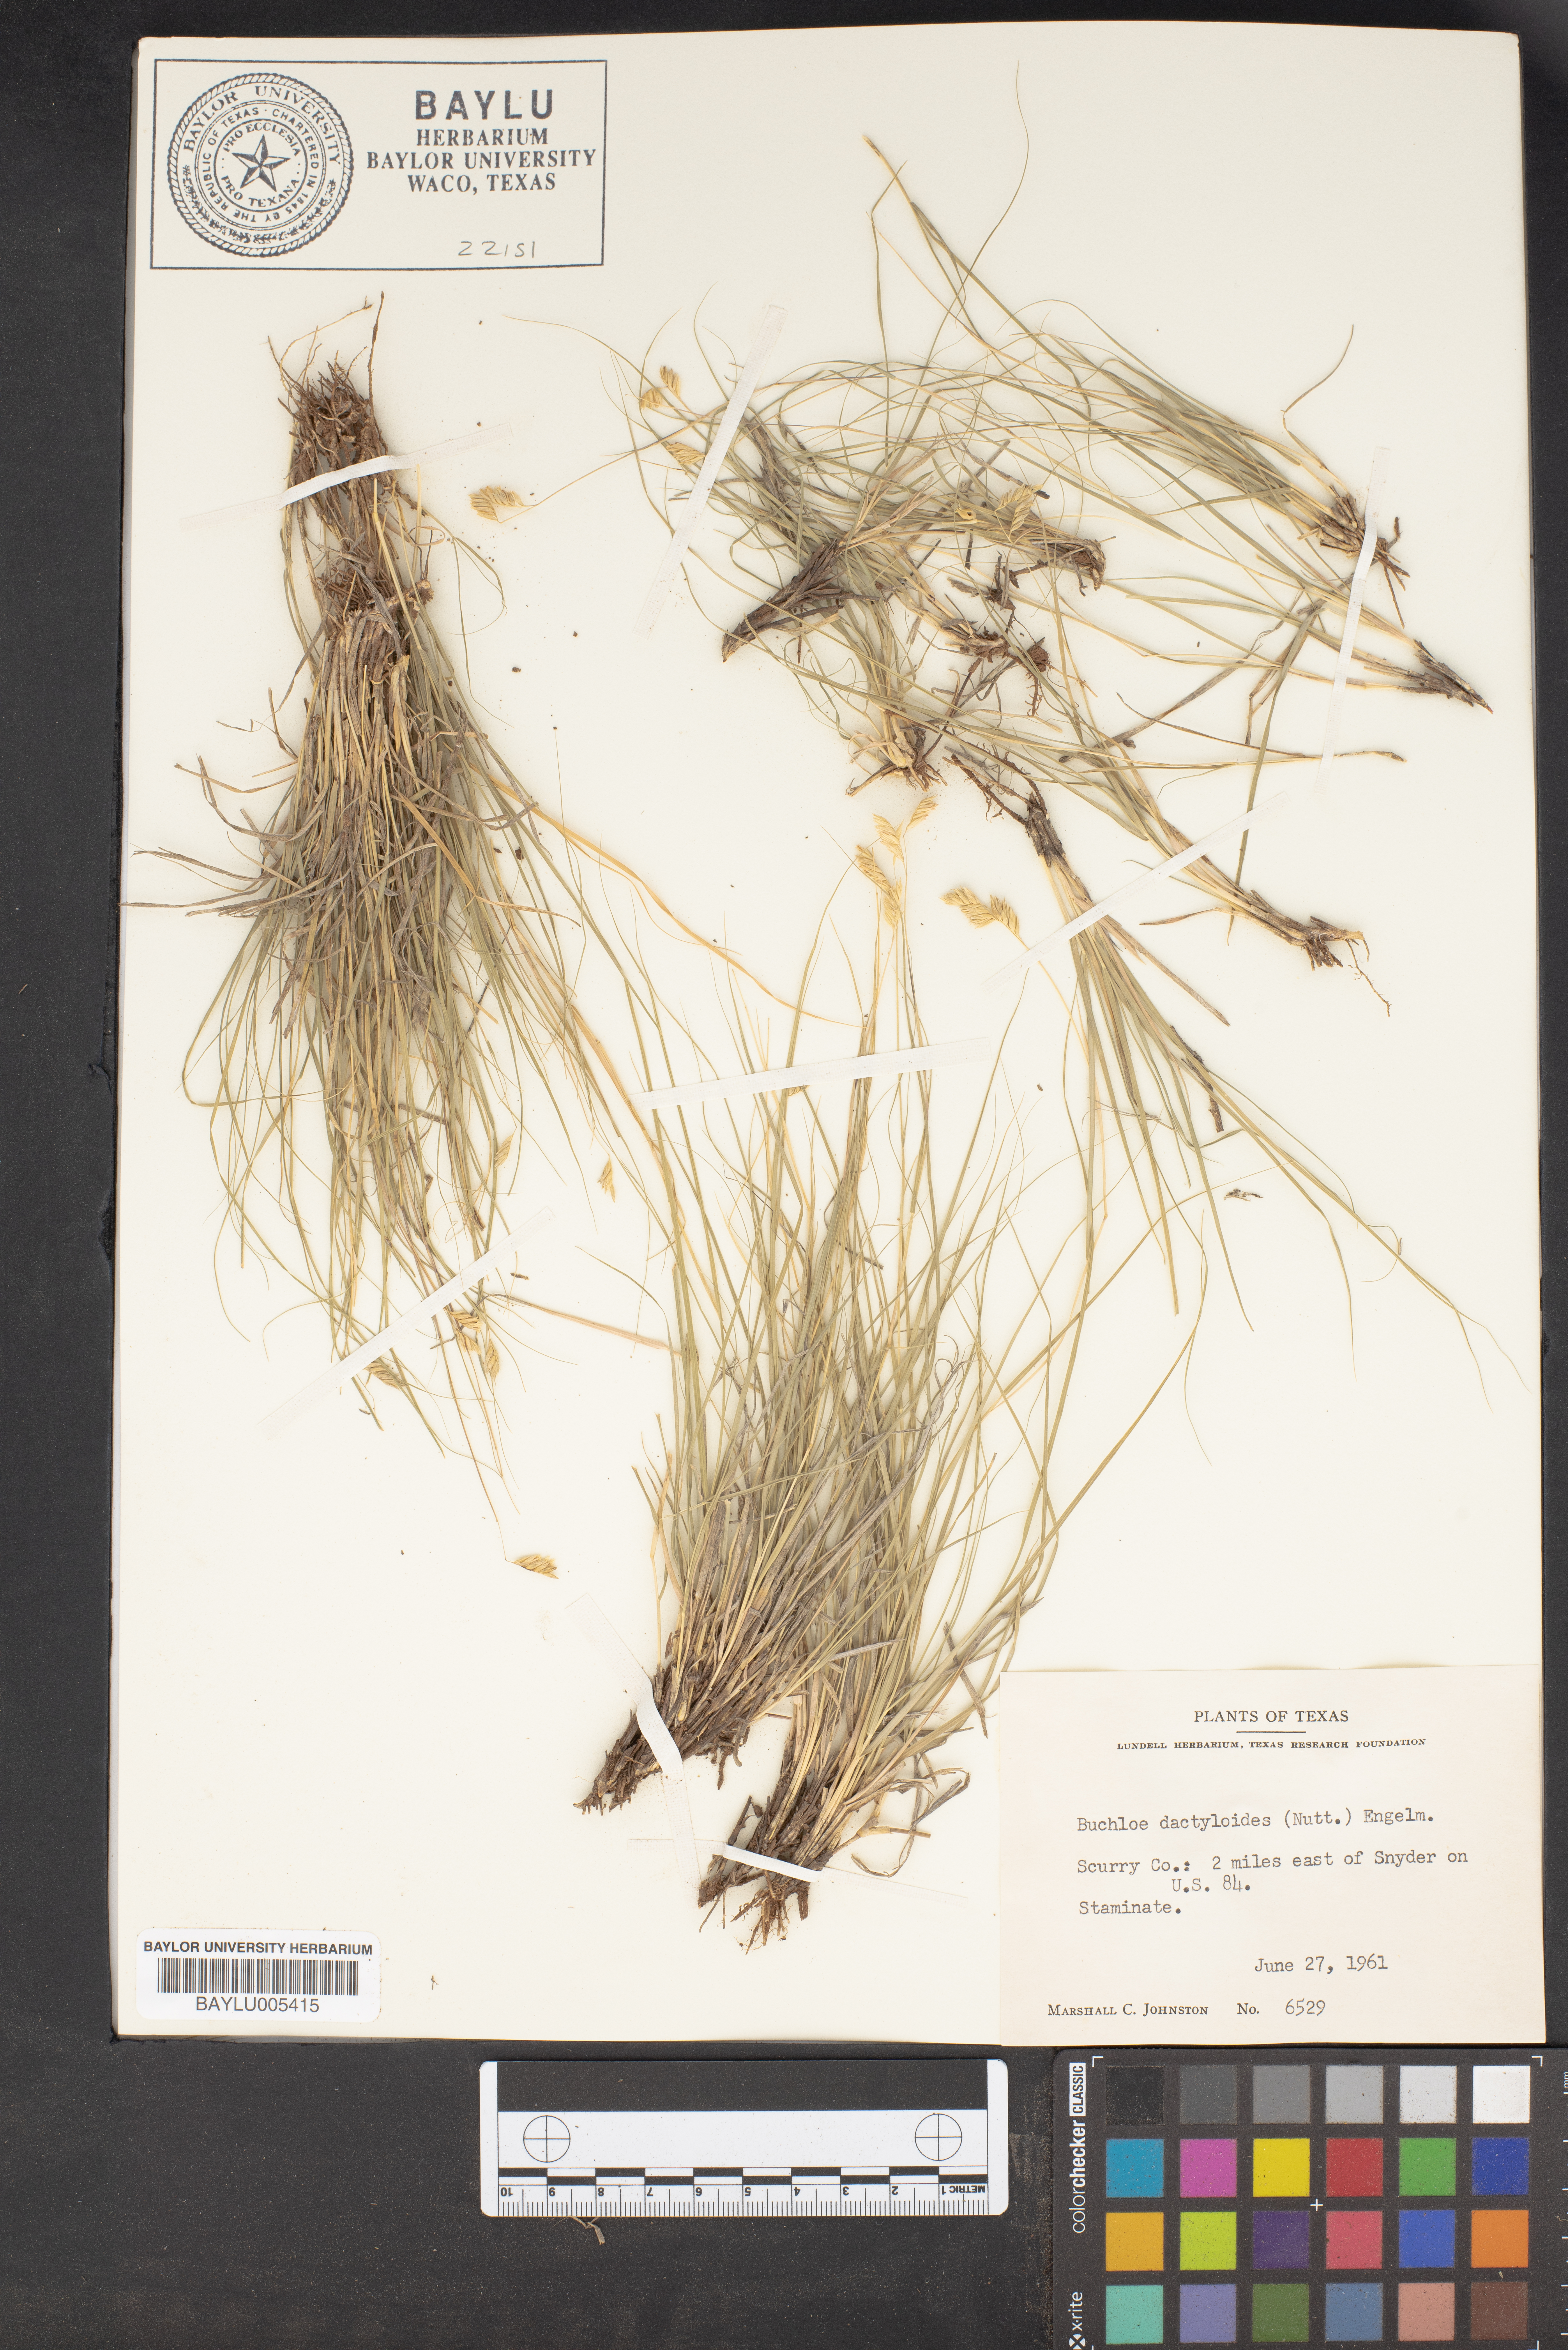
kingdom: Plantae
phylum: Tracheophyta
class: Liliopsida
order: Poales
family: Poaceae
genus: Bouteloua
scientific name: Bouteloua dactyloides
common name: Buffalo grass
